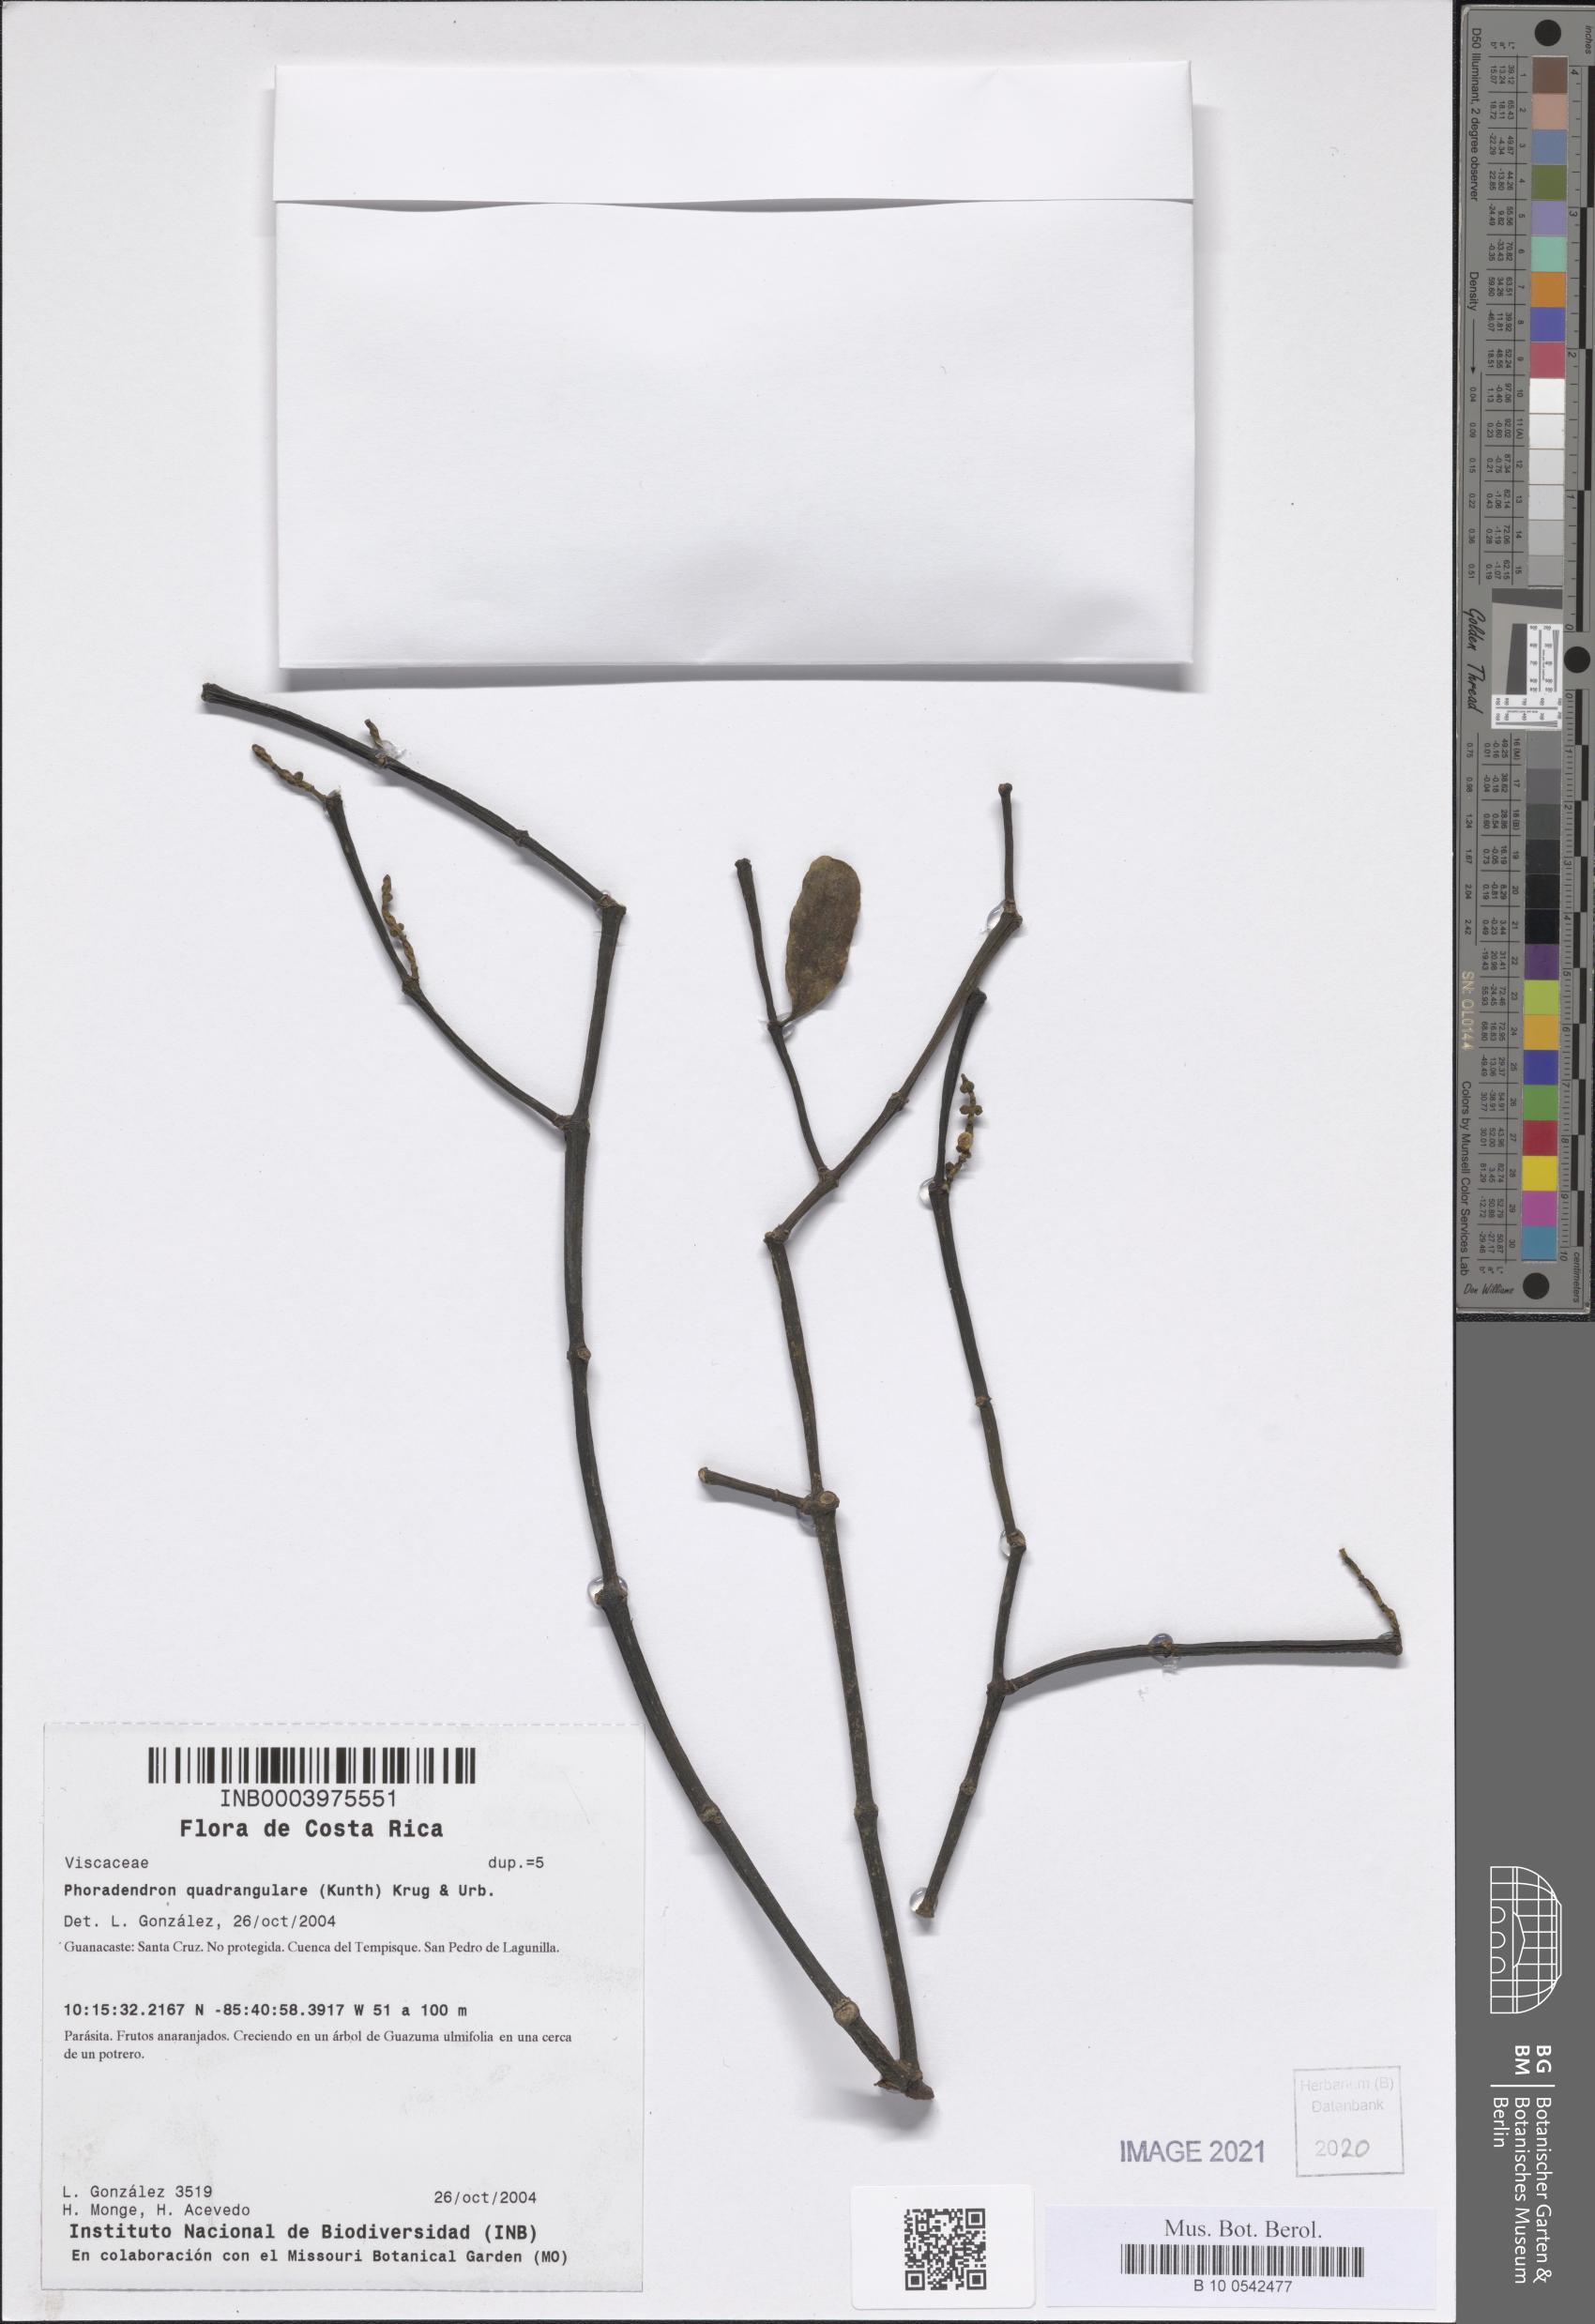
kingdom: Plantae
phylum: Tracheophyta
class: Magnoliopsida
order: Santalales
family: Viscaceae
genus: Phoradendron
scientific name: Phoradendron quadrangulare
